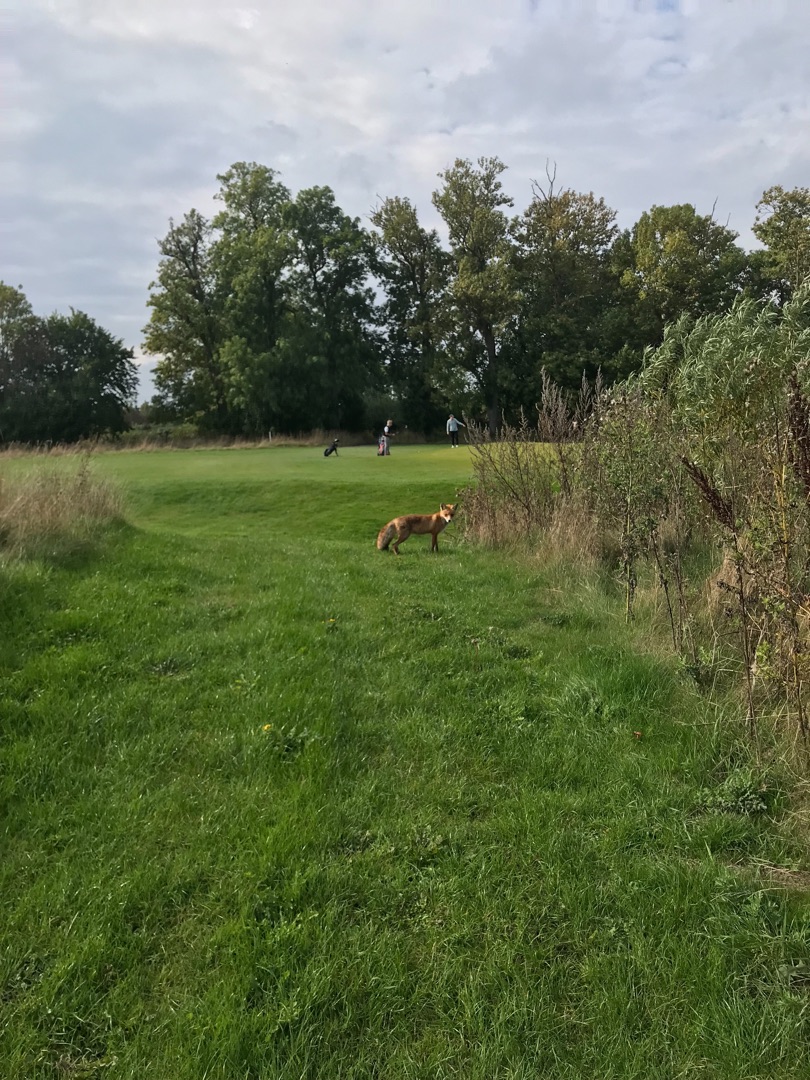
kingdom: Animalia
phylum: Chordata
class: Mammalia
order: Carnivora
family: Canidae
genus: Vulpes
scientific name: Vulpes vulpes
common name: Ræv
